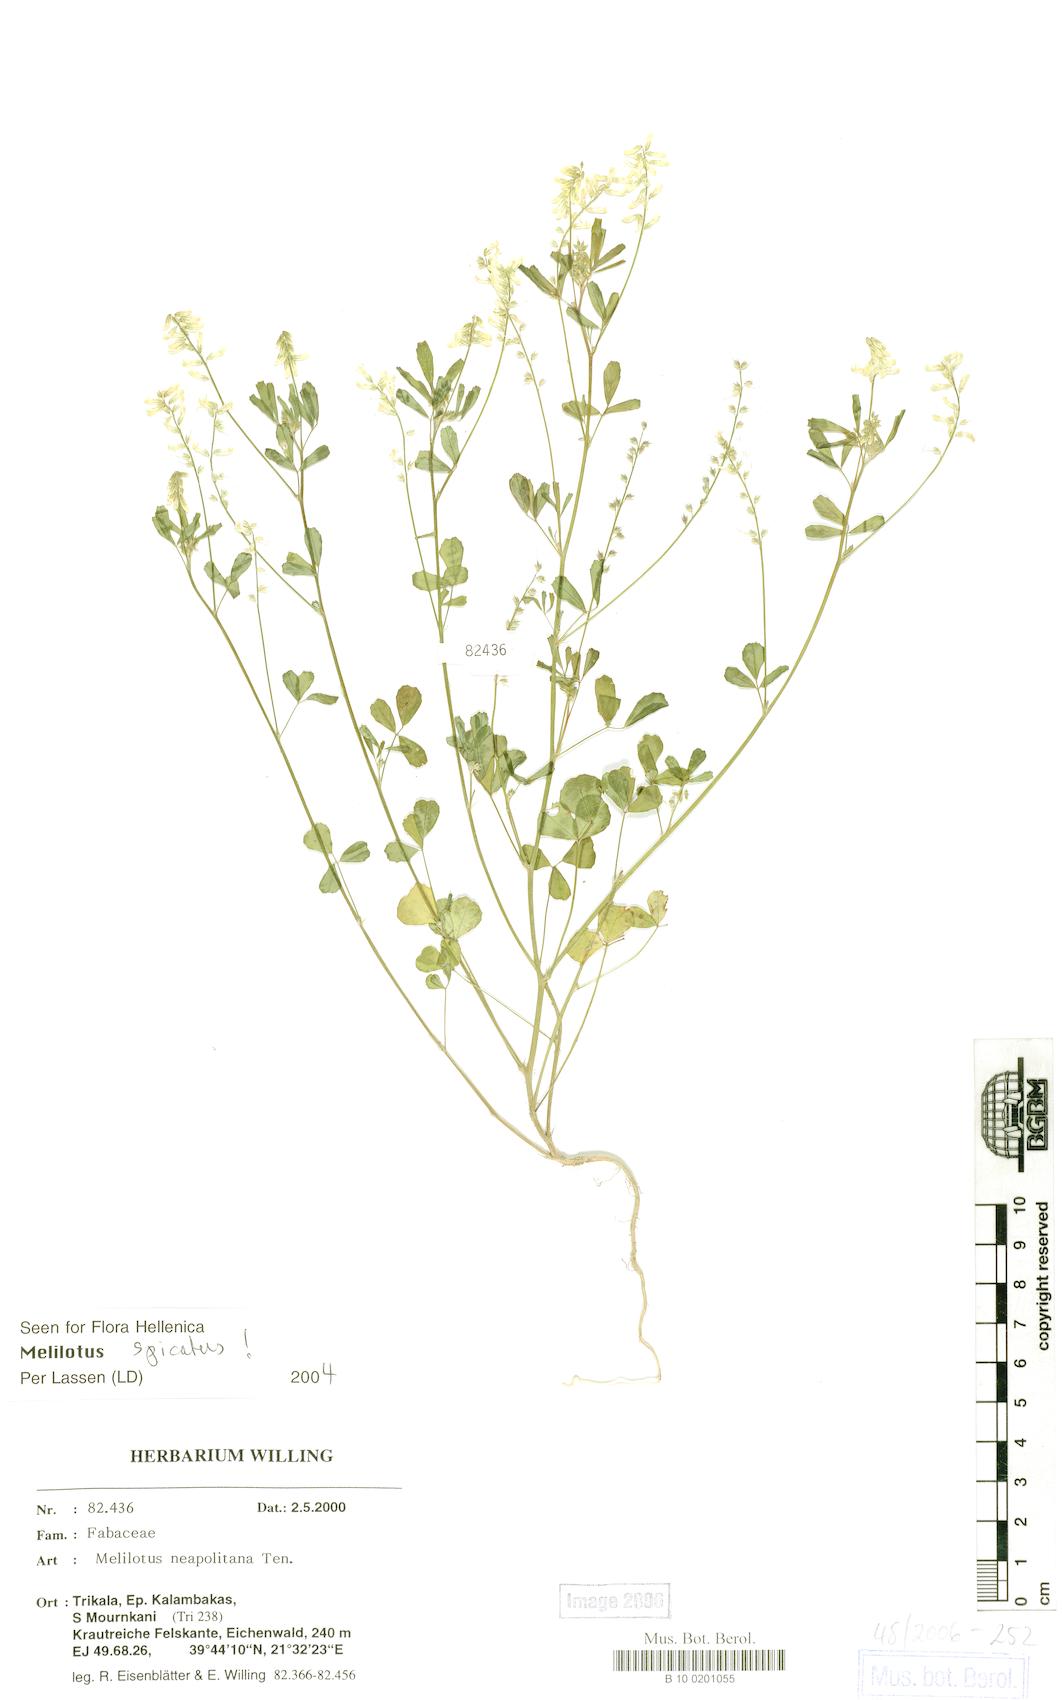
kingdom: Plantae
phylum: Tracheophyta
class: Magnoliopsida
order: Fabales
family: Fabaceae
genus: Melilotus
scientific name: Melilotus neapolitanus
